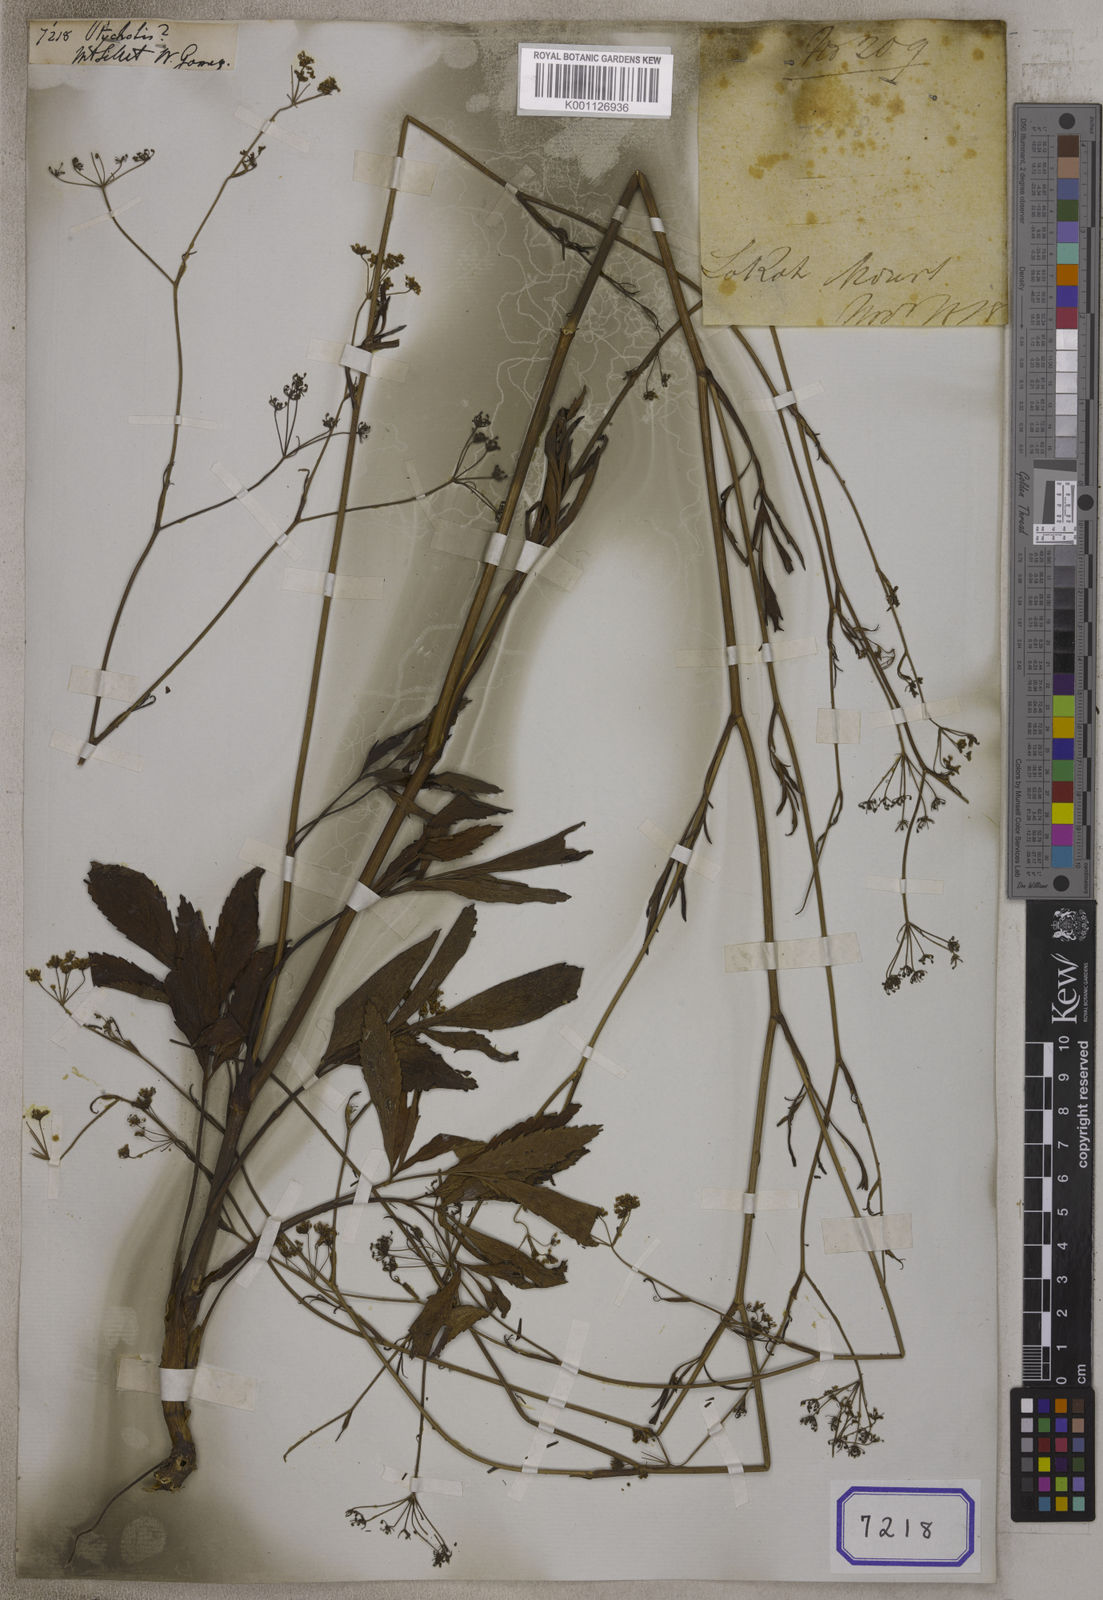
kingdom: Plantae
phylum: Tracheophyta
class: Magnoliopsida
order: Apiales
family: Apiaceae
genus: Ptychotis
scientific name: Ptychotis
